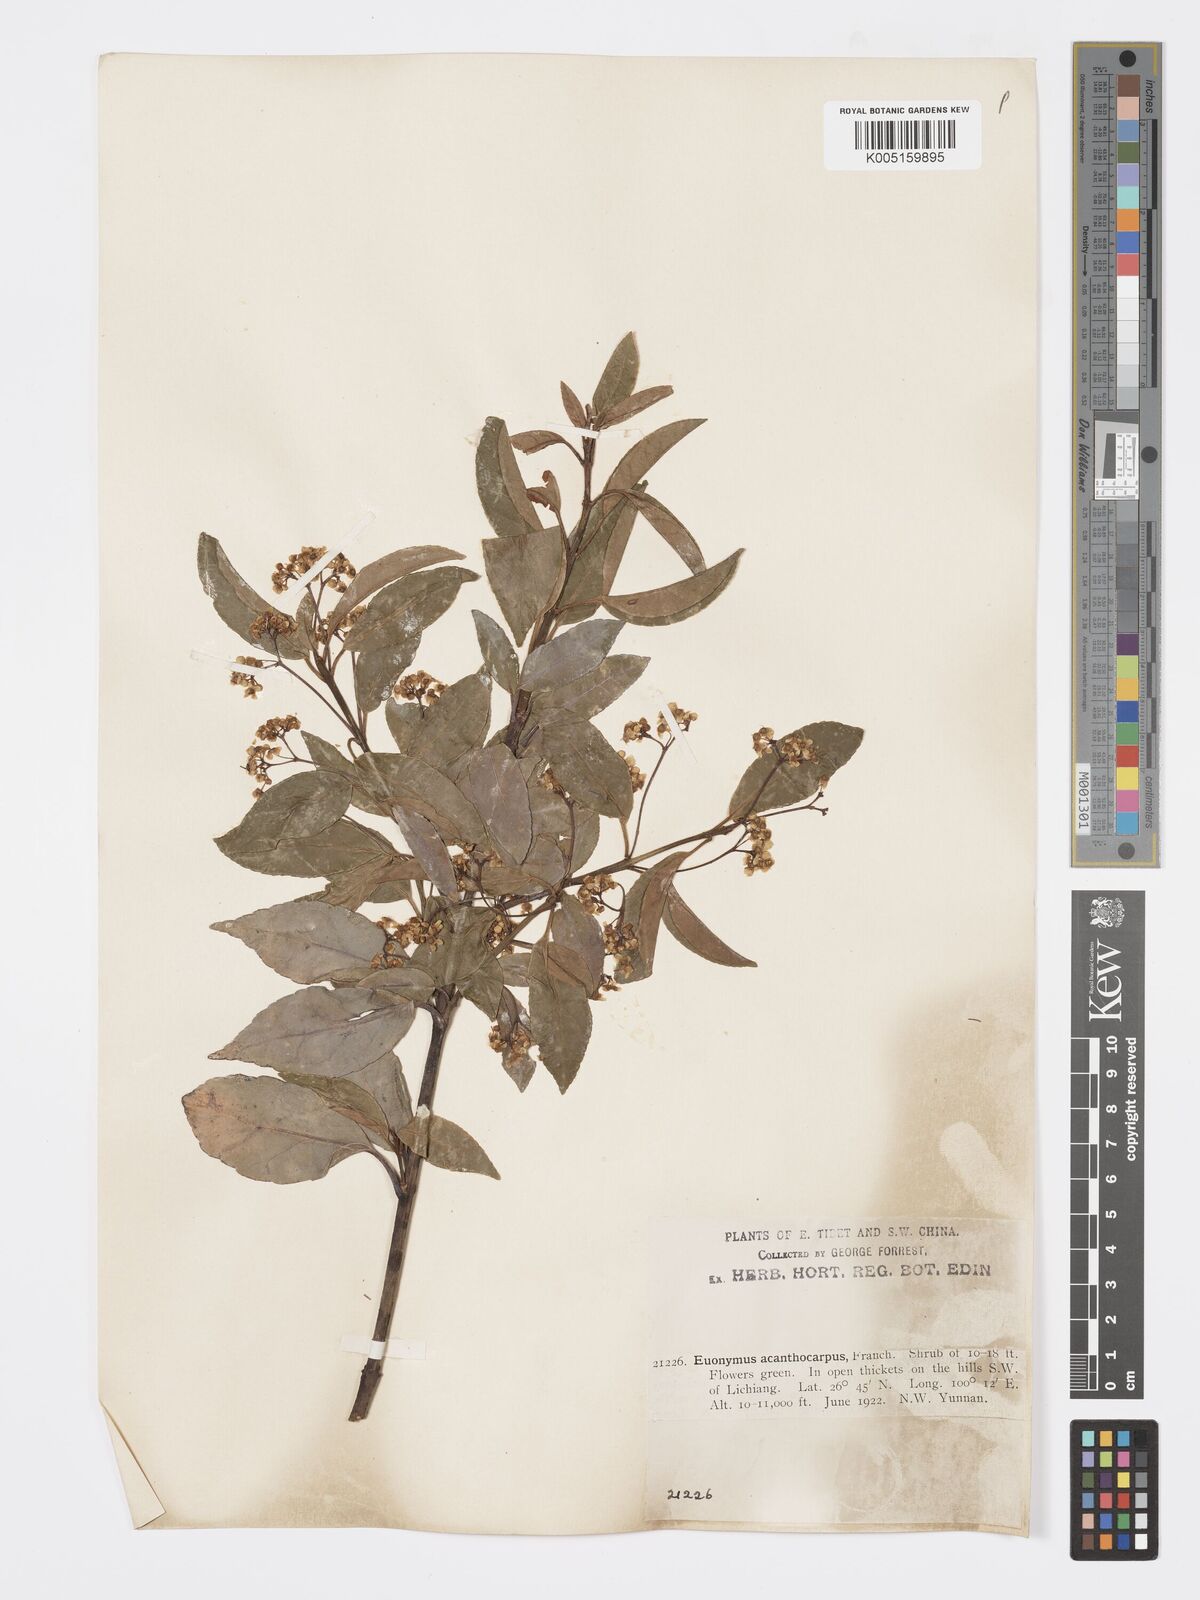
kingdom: Plantae
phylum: Tracheophyta
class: Magnoliopsida
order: Celastrales
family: Celastraceae
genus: Euonymus
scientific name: Euonymus acanthocarpus
